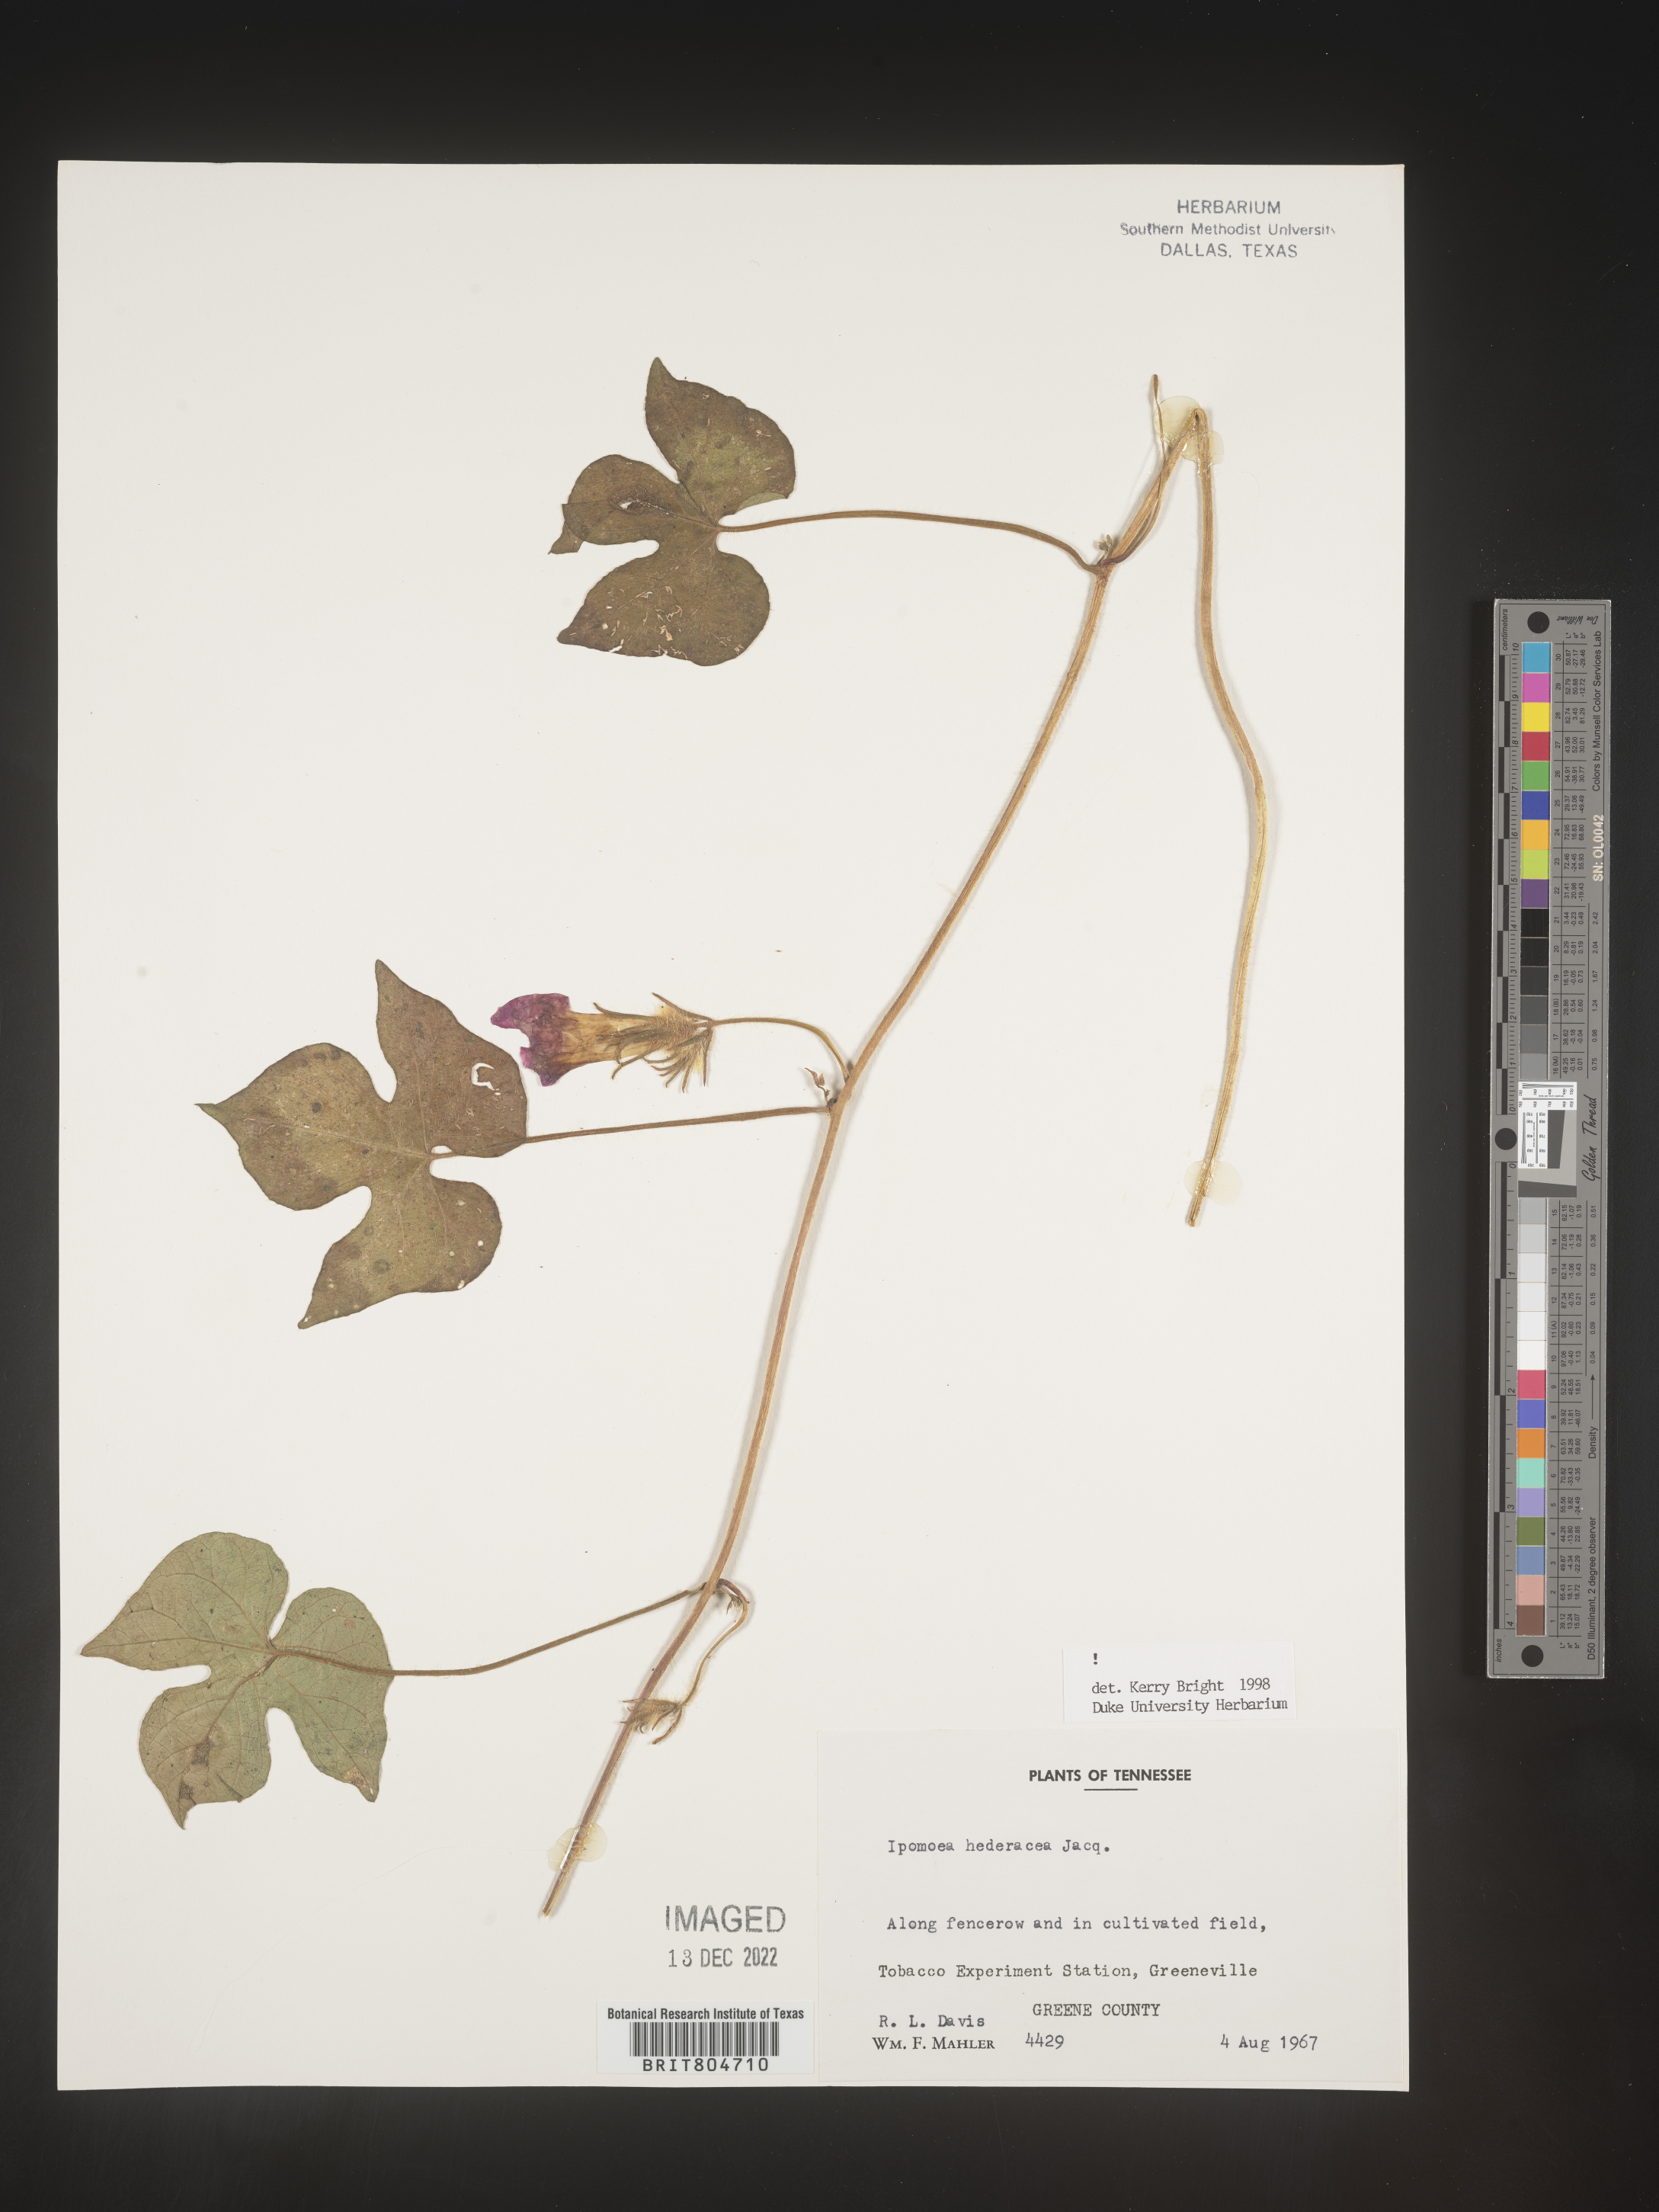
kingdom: Plantae
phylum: Tracheophyta
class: Magnoliopsida
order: Solanales
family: Convolvulaceae
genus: Ipomoea
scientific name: Ipomoea hederacea
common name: Ivy-leaved morning-glory
